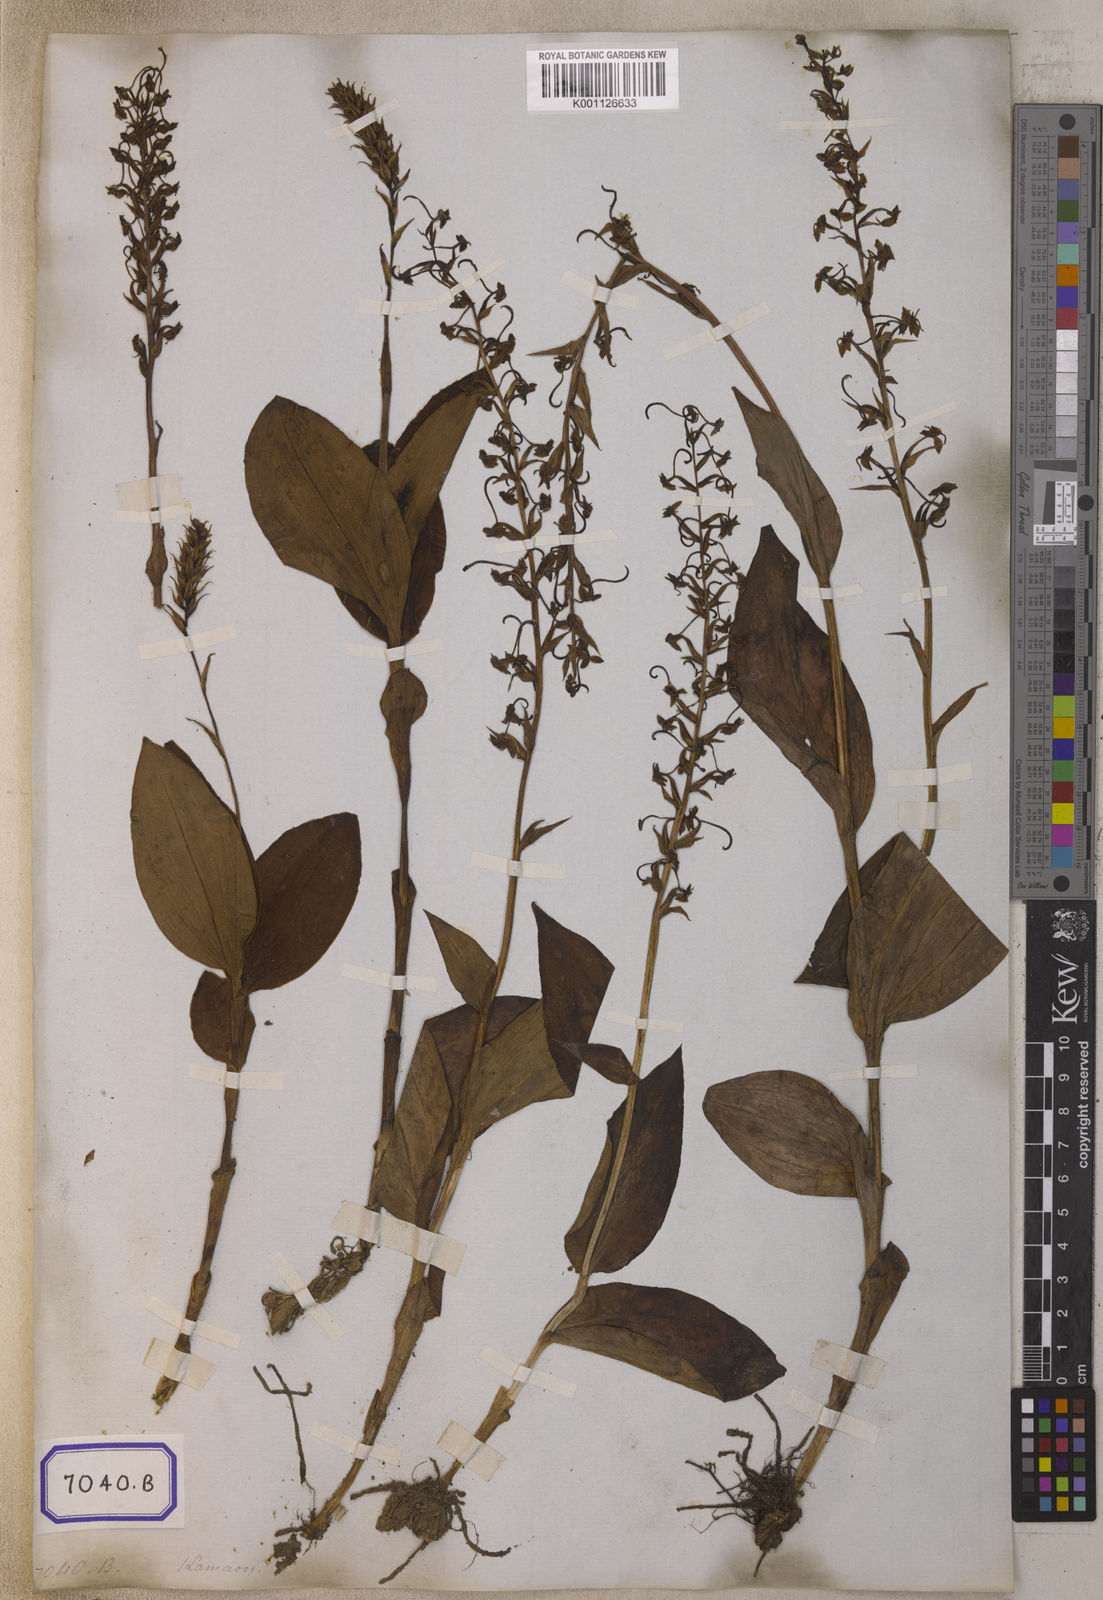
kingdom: Plantae
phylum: Tracheophyta
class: Liliopsida
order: Asparagales
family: Orchidaceae
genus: Herminium
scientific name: Herminium latilabre
